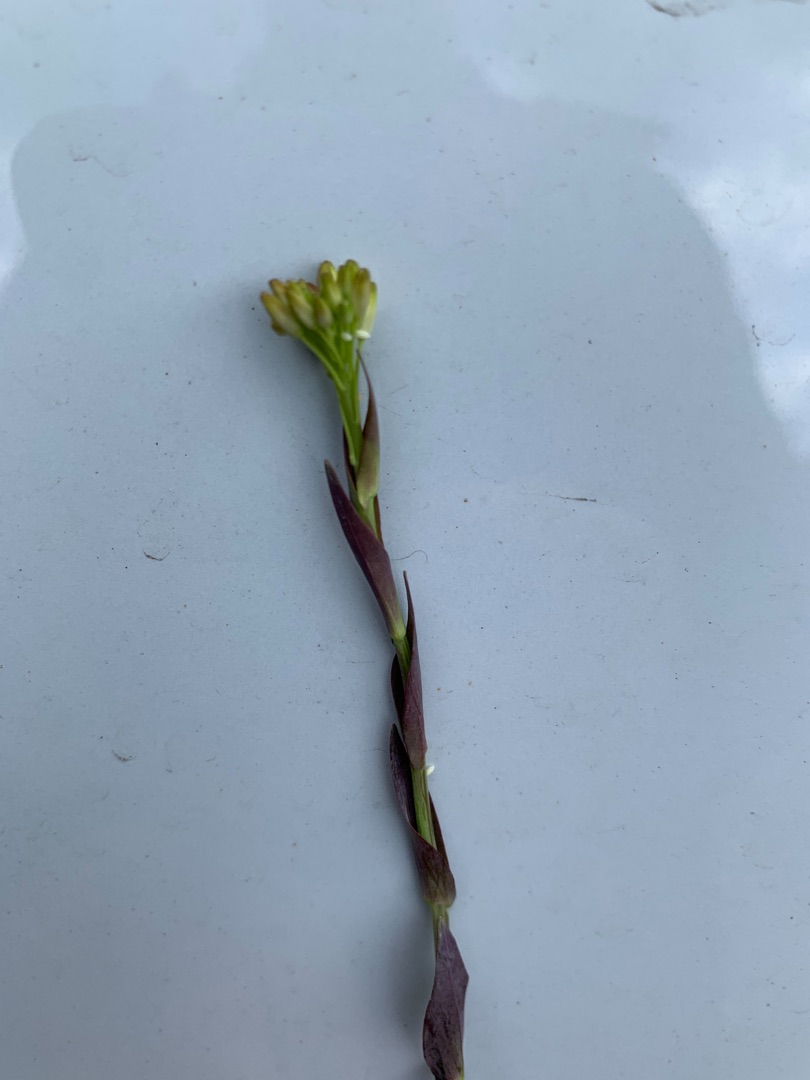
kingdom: Plantae
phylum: Tracheophyta
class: Magnoliopsida
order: Brassicales
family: Brassicaceae
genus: Turritis
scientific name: Turritis glabra
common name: Tårnurt
